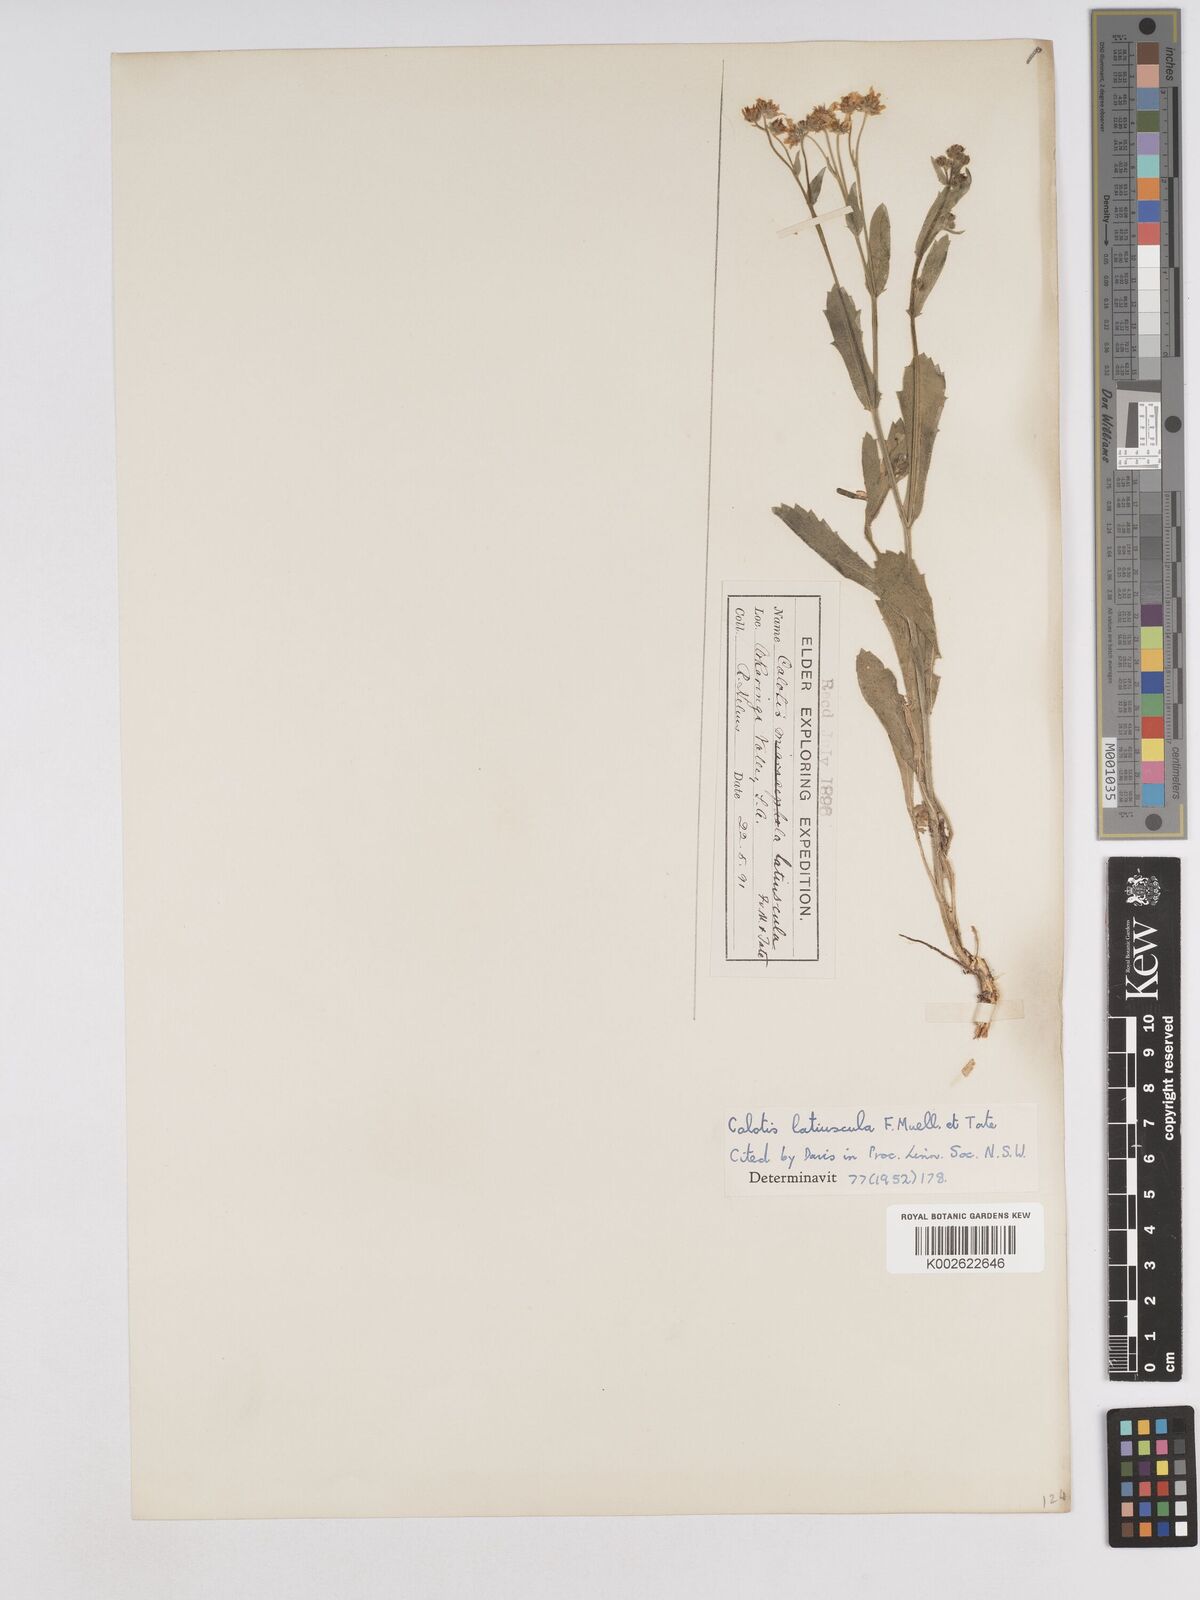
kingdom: Plantae
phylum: Tracheophyta
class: Magnoliopsida
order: Asterales
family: Asteraceae
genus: Calotis
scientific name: Calotis latiuscula
